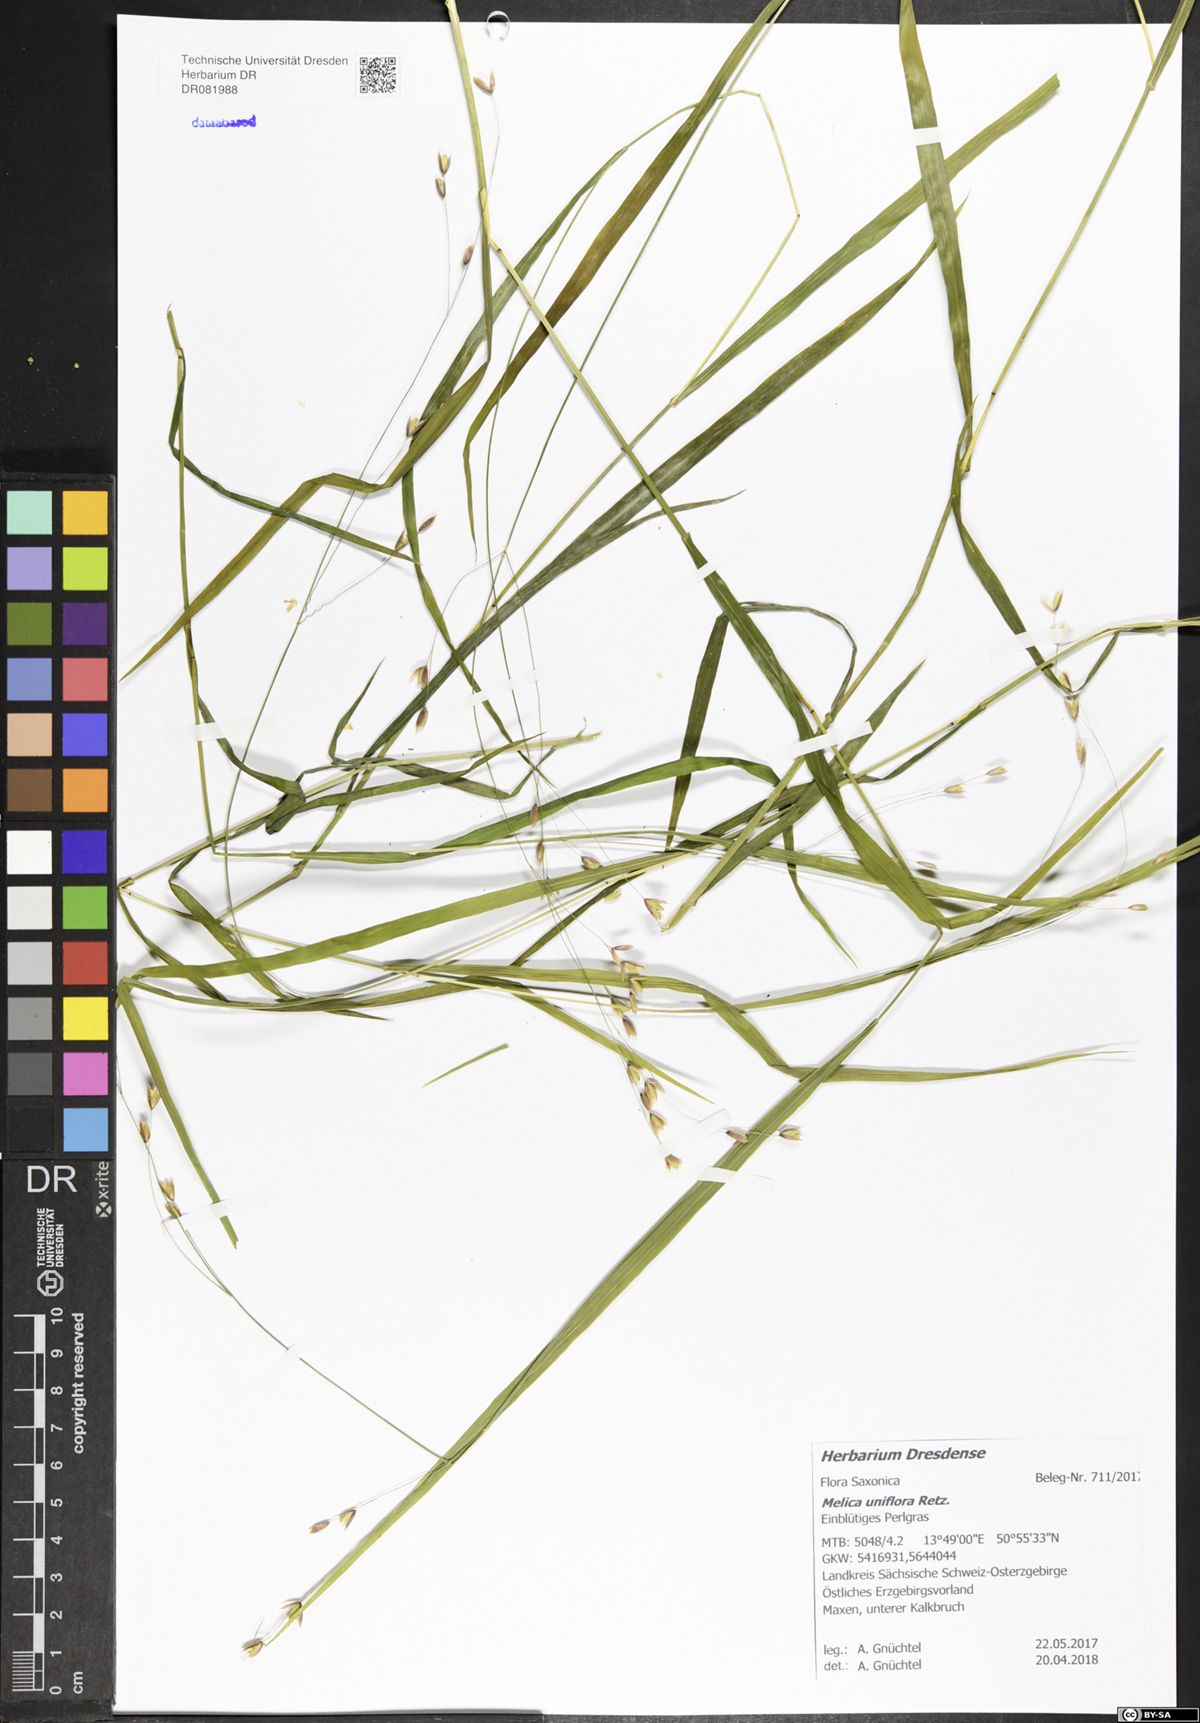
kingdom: Plantae
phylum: Tracheophyta
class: Liliopsida
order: Poales
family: Poaceae
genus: Melica
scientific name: Melica uniflora
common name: Wood melick
